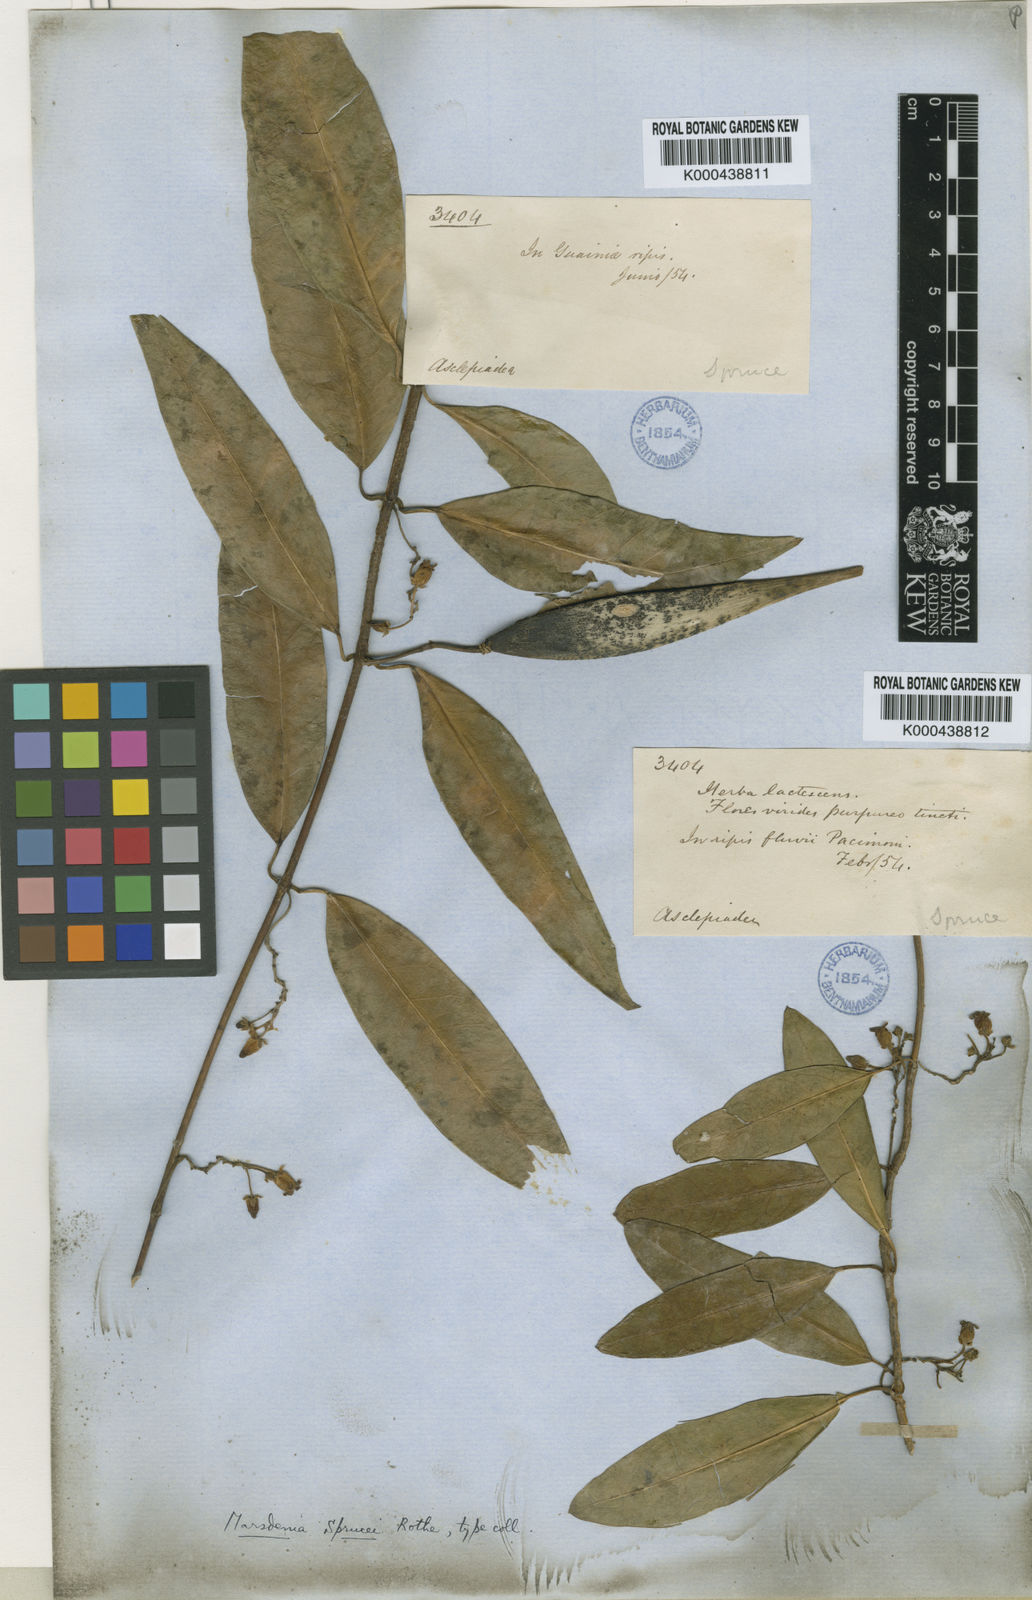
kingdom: Plantae
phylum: Tracheophyta
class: Magnoliopsida
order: Gentianales
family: Apocynaceae
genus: Ruehssia
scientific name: Ruehssia sprucei
